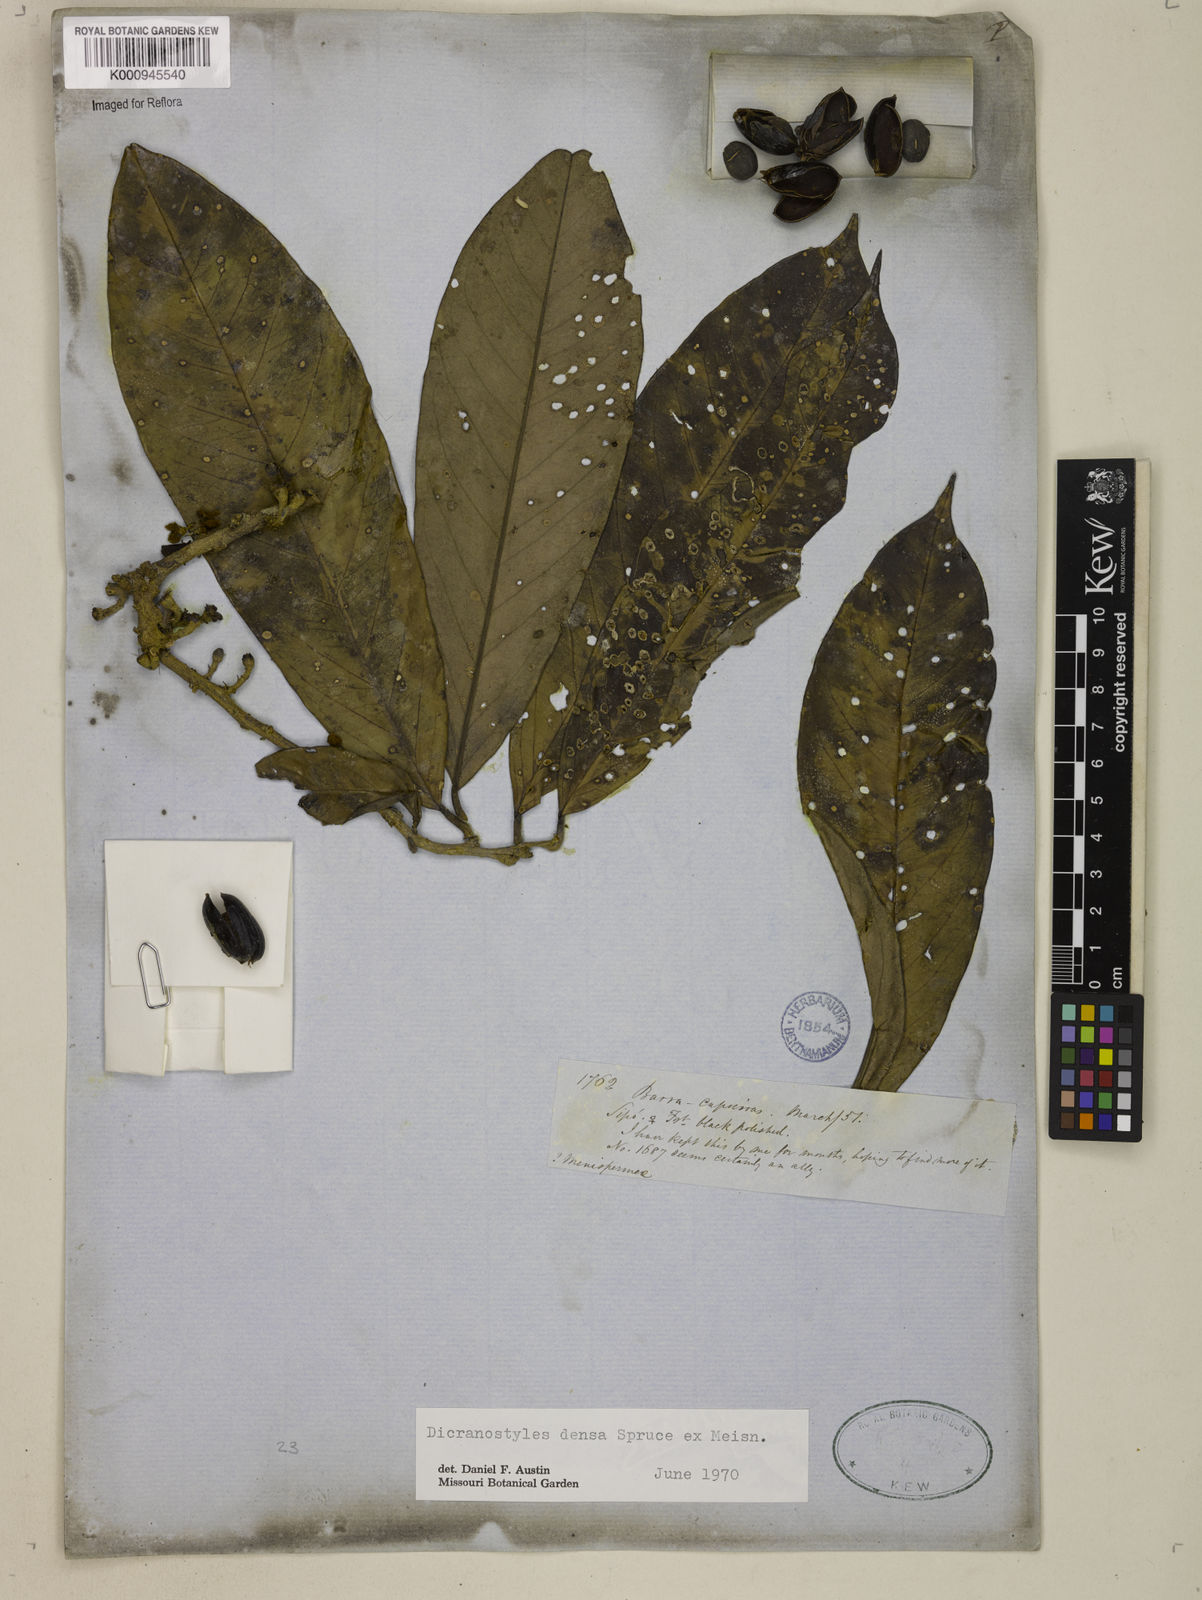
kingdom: Plantae
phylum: Tracheophyta
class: Magnoliopsida
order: Solanales
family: Convolvulaceae
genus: Dicranostyles
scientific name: Dicranostyles densa
